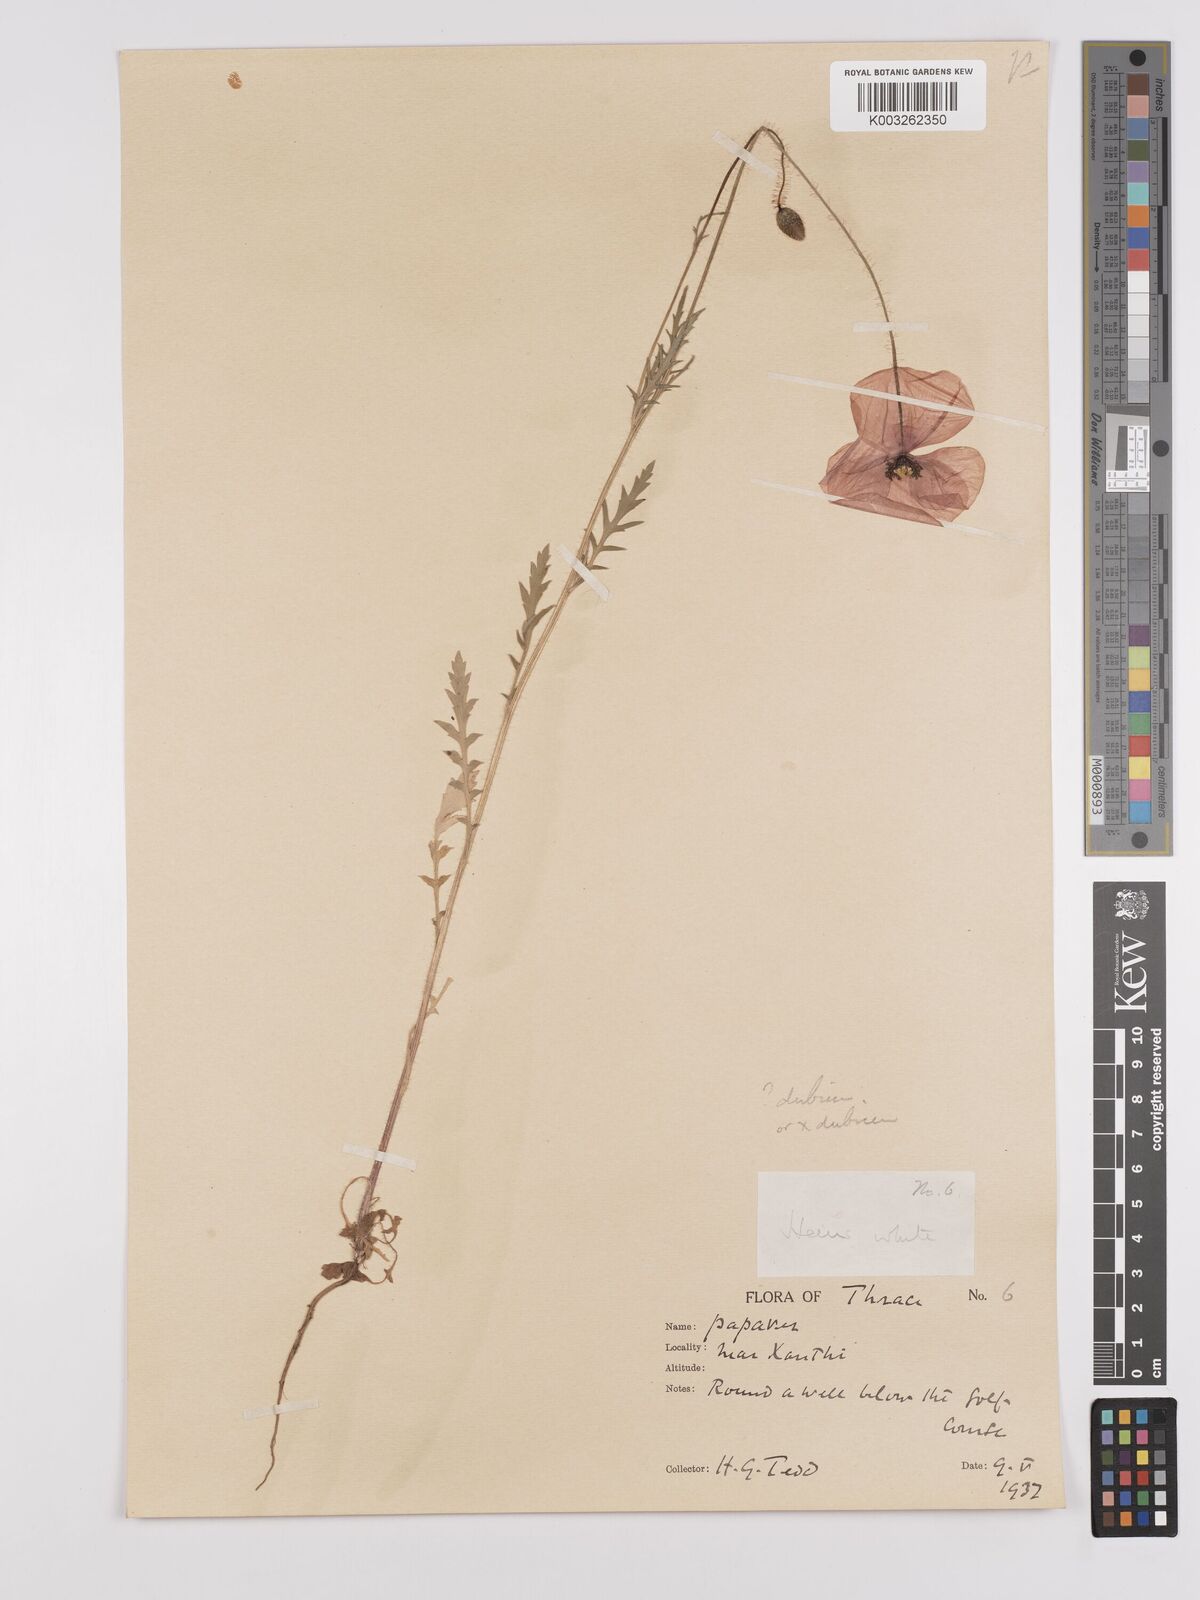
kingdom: Plantae
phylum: Tracheophyta
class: Magnoliopsida
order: Ranunculales
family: Papaveraceae
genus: Papaver
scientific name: Papaver rhoeas
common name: Corn poppy
